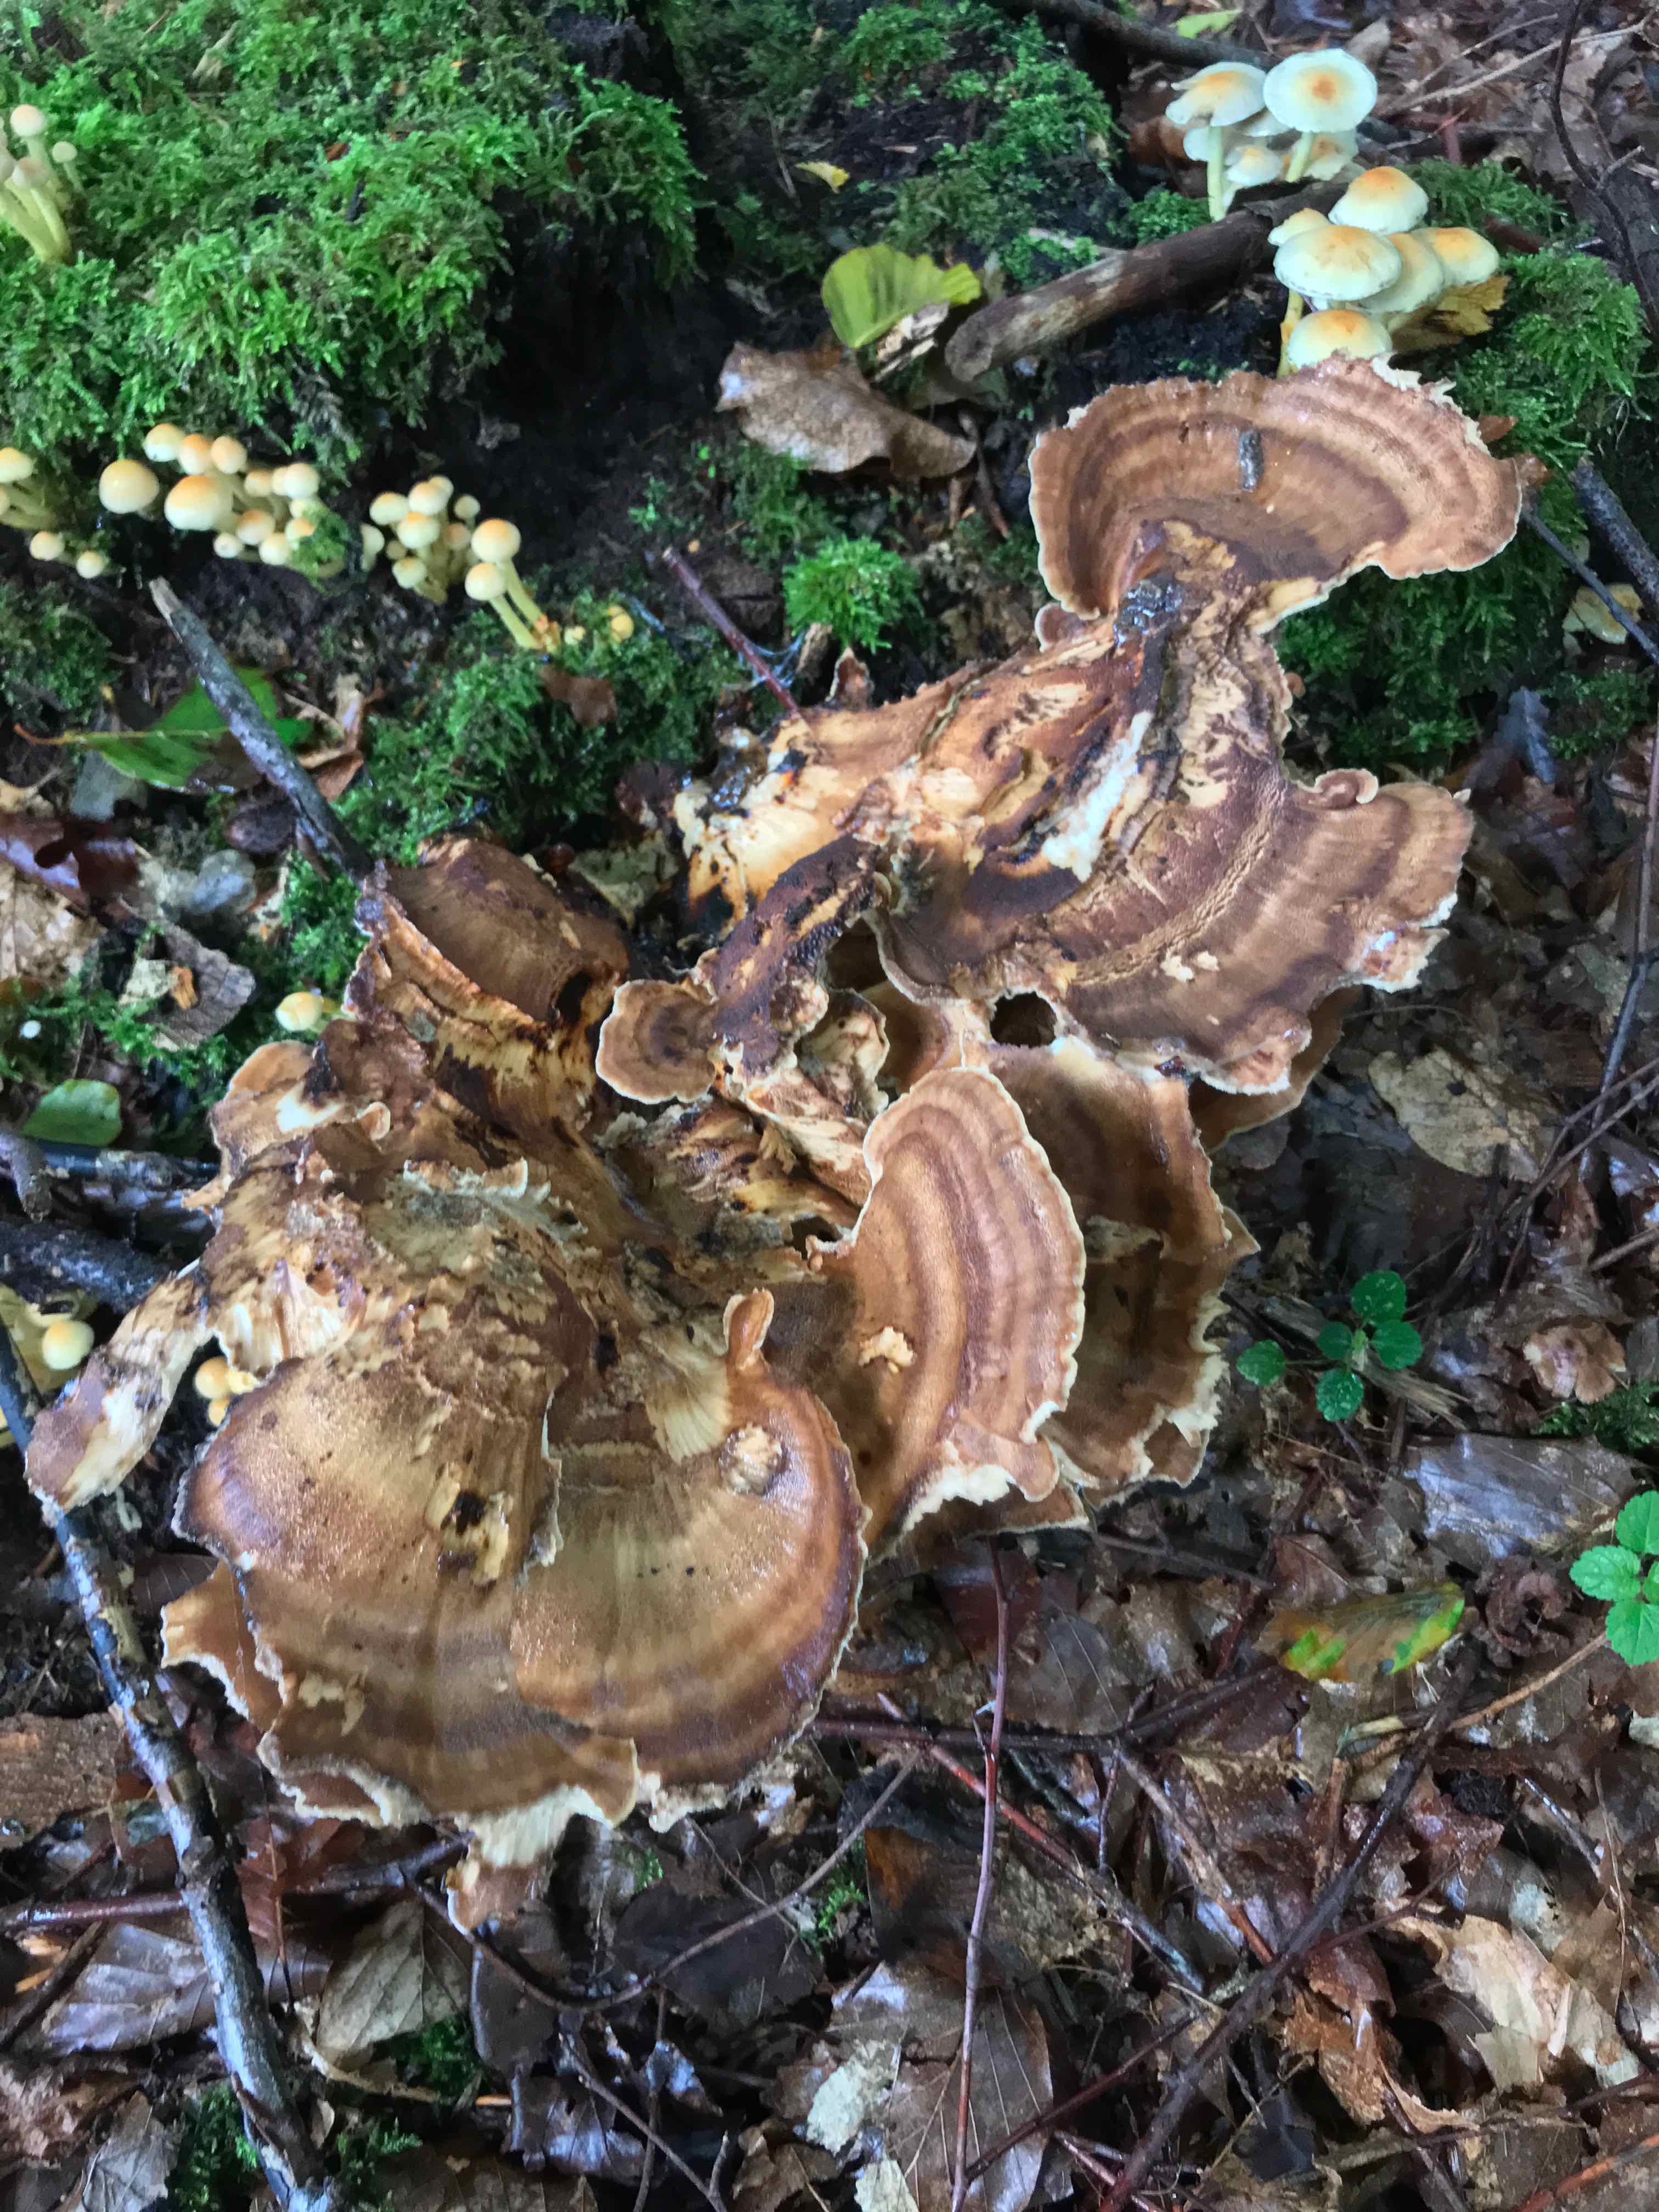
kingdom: Fungi
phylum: Basidiomycota
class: Agaricomycetes
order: Polyporales
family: Meripilaceae
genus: Meripilus
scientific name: Meripilus giganteus
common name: kæmpeporesvamp
